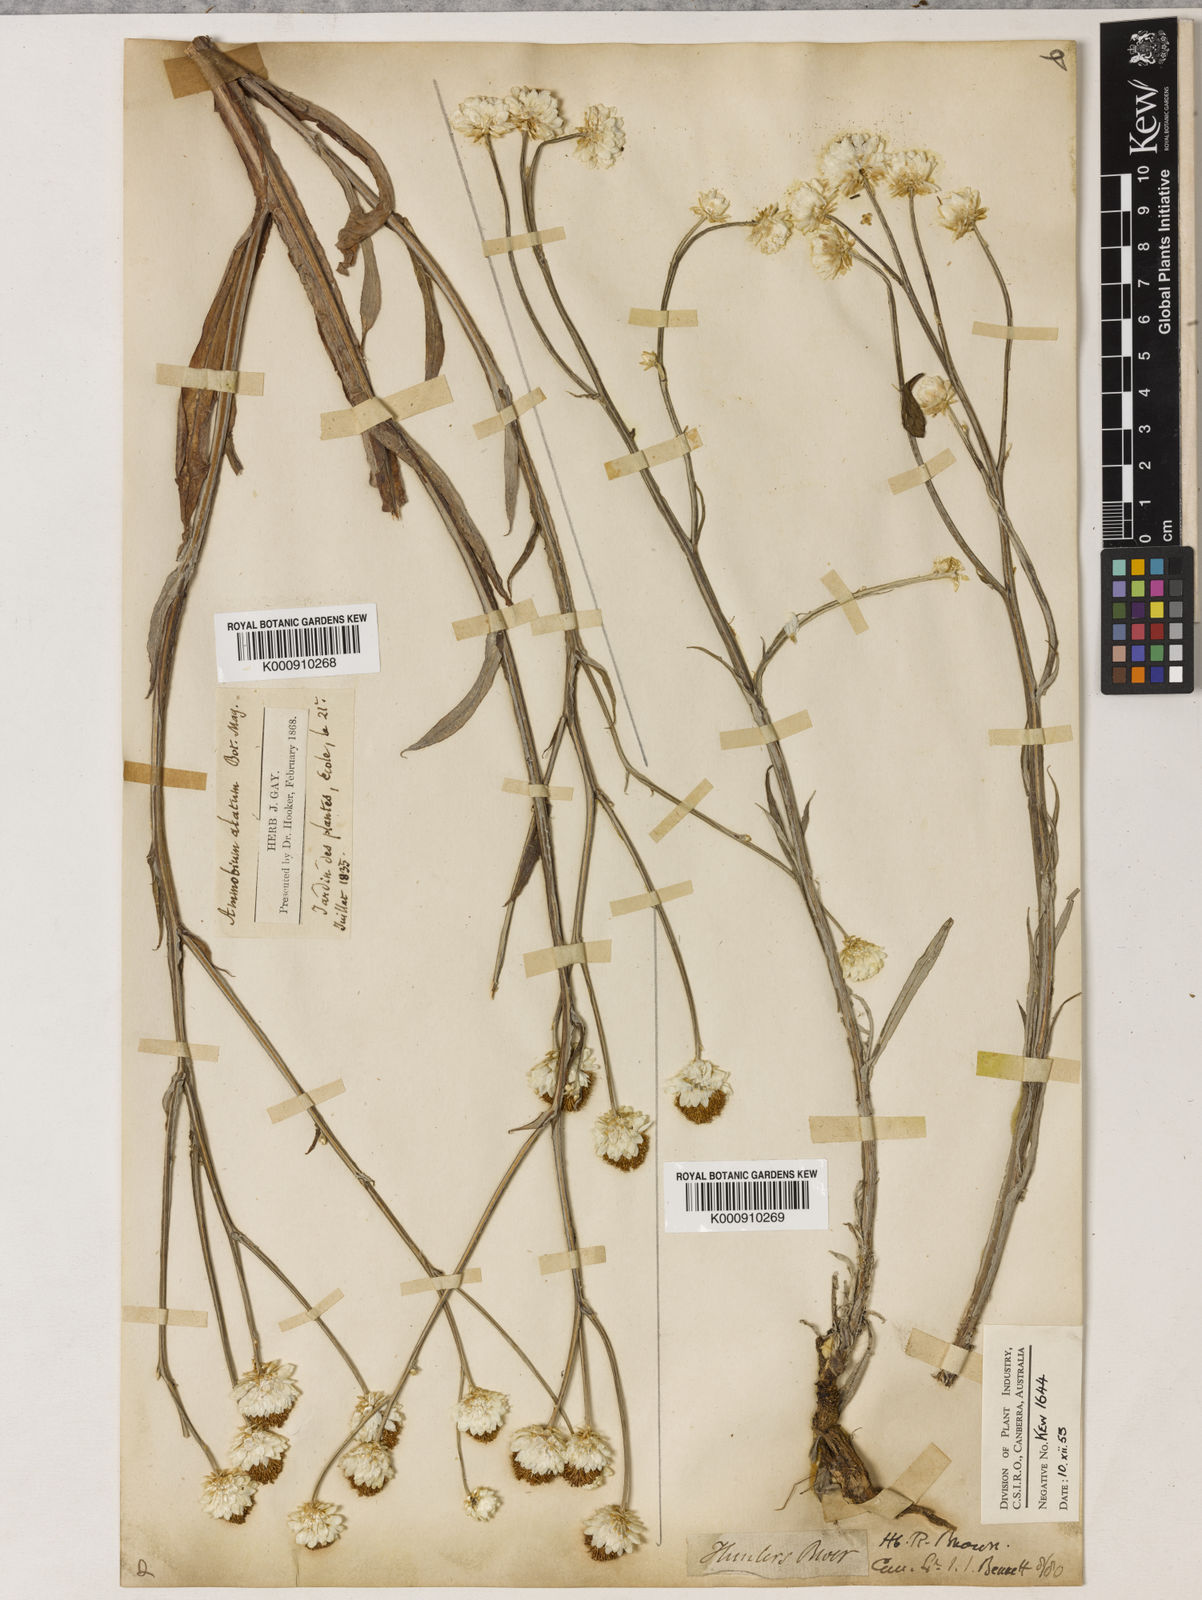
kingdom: Plantae
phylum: Tracheophyta
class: Magnoliopsida
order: Asterales
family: Asteraceae
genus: Ammobium
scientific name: Ammobium alatum
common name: Winged everlasting
